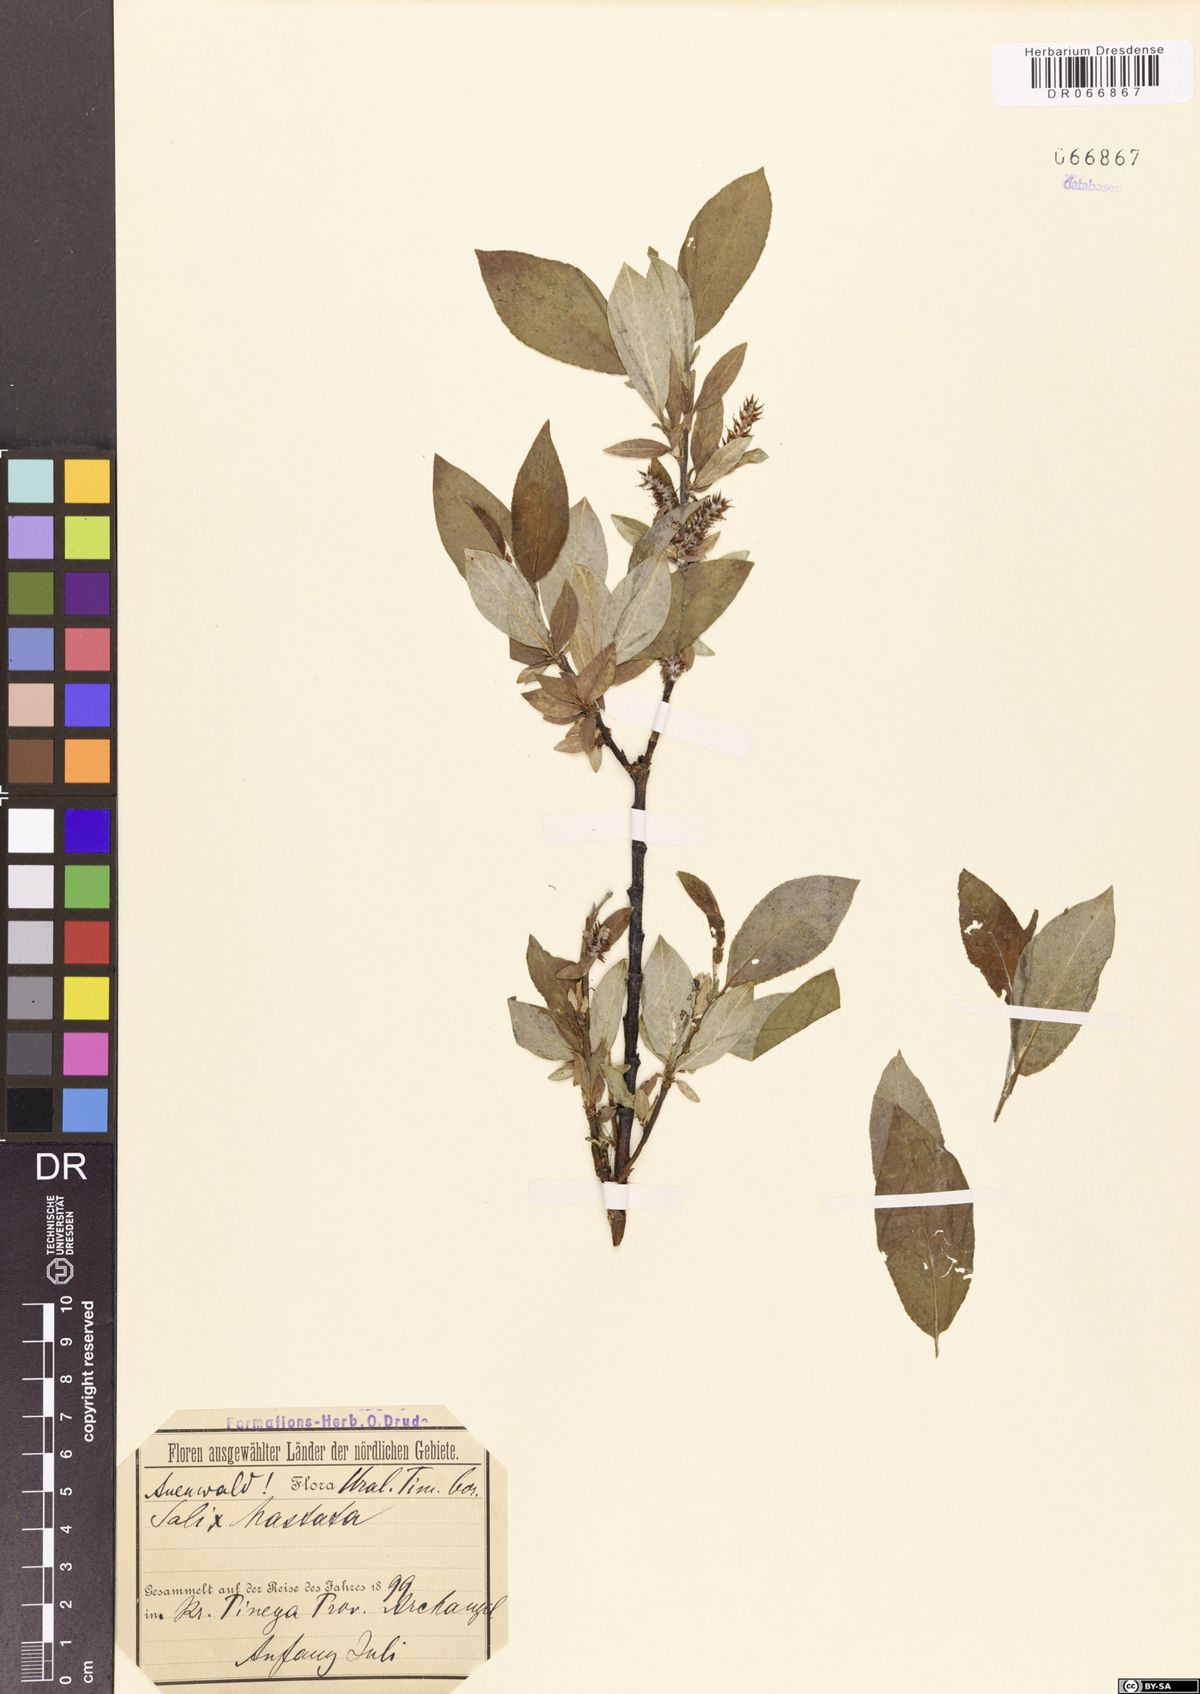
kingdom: Plantae
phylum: Tracheophyta
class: Magnoliopsida
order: Malpighiales
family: Salicaceae
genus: Salix
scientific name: Salix hastata
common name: Halberd willow
